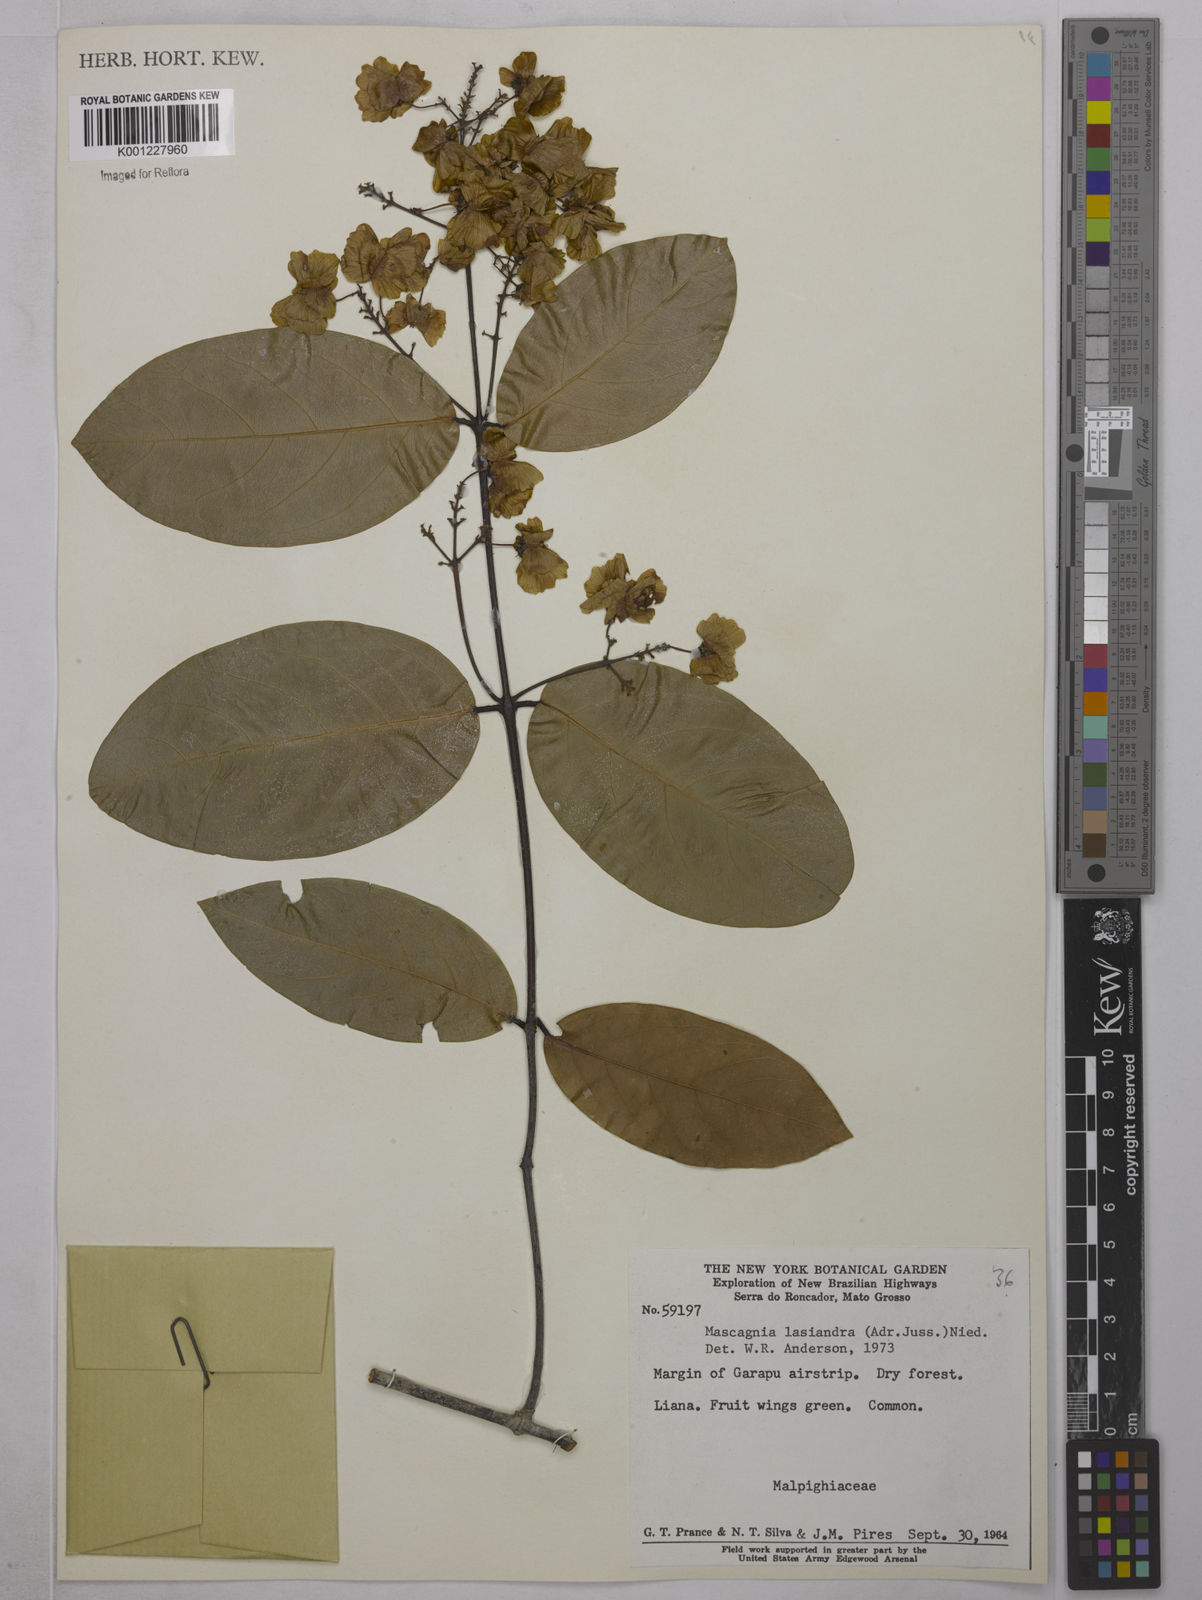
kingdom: Plantae
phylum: Tracheophyta
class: Magnoliopsida
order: Malpighiales
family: Malpighiaceae
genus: Niedenzuella
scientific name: Niedenzuella lasiandra
